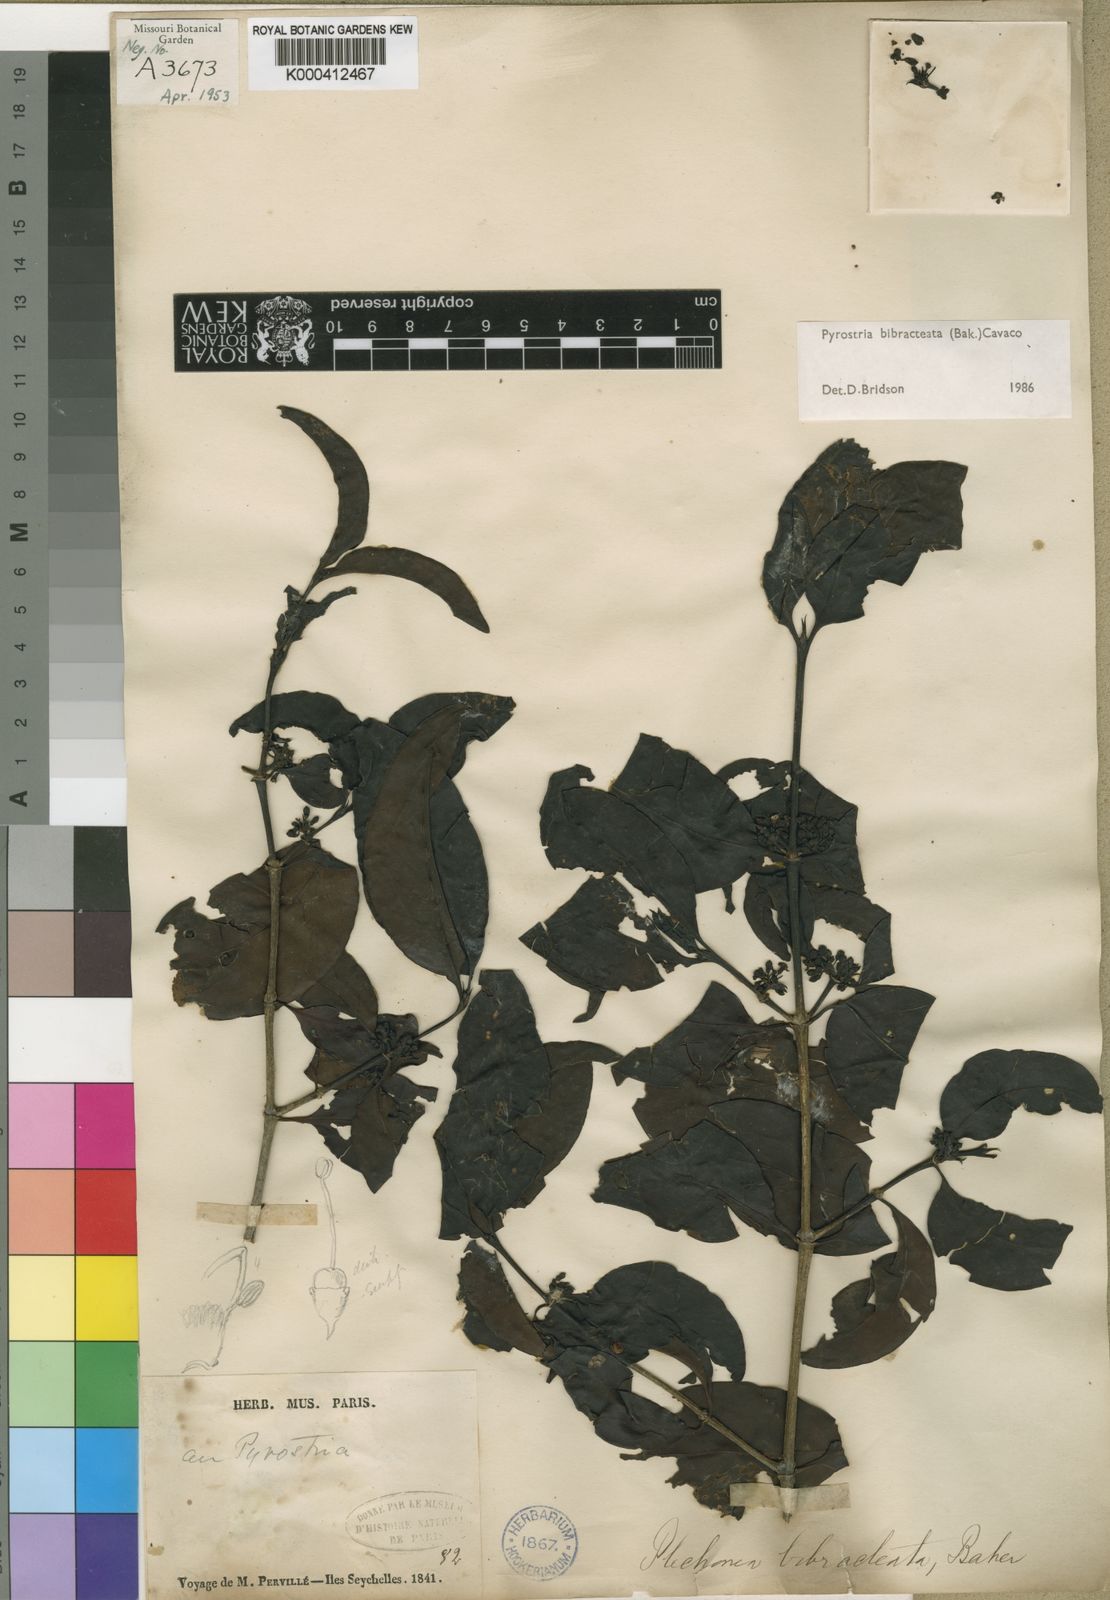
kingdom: Plantae
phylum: Tracheophyta
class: Magnoliopsida
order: Gentianales
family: Rubiaceae
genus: Pyrostria
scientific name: Pyrostria bibracteata
